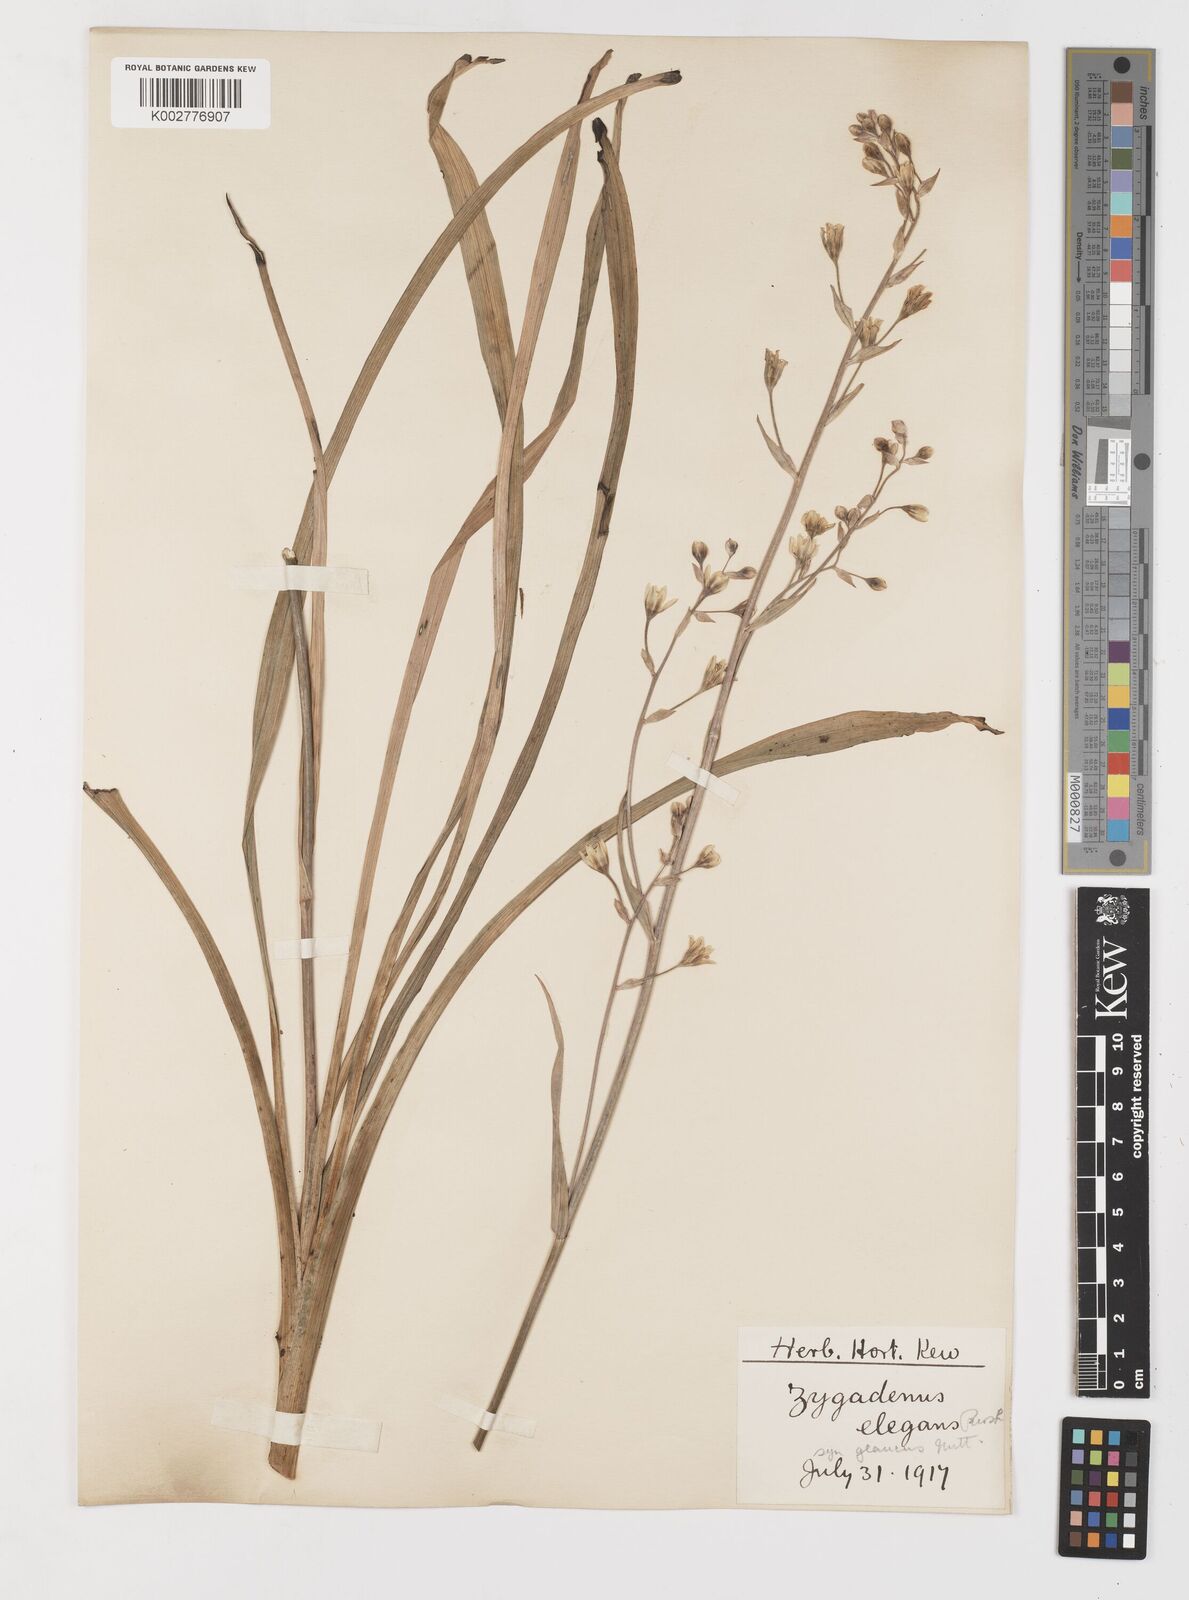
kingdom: Plantae
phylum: Tracheophyta
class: Liliopsida
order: Liliales
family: Melanthiaceae
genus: Anticlea
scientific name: Anticlea elegans
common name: Mountain death camas
